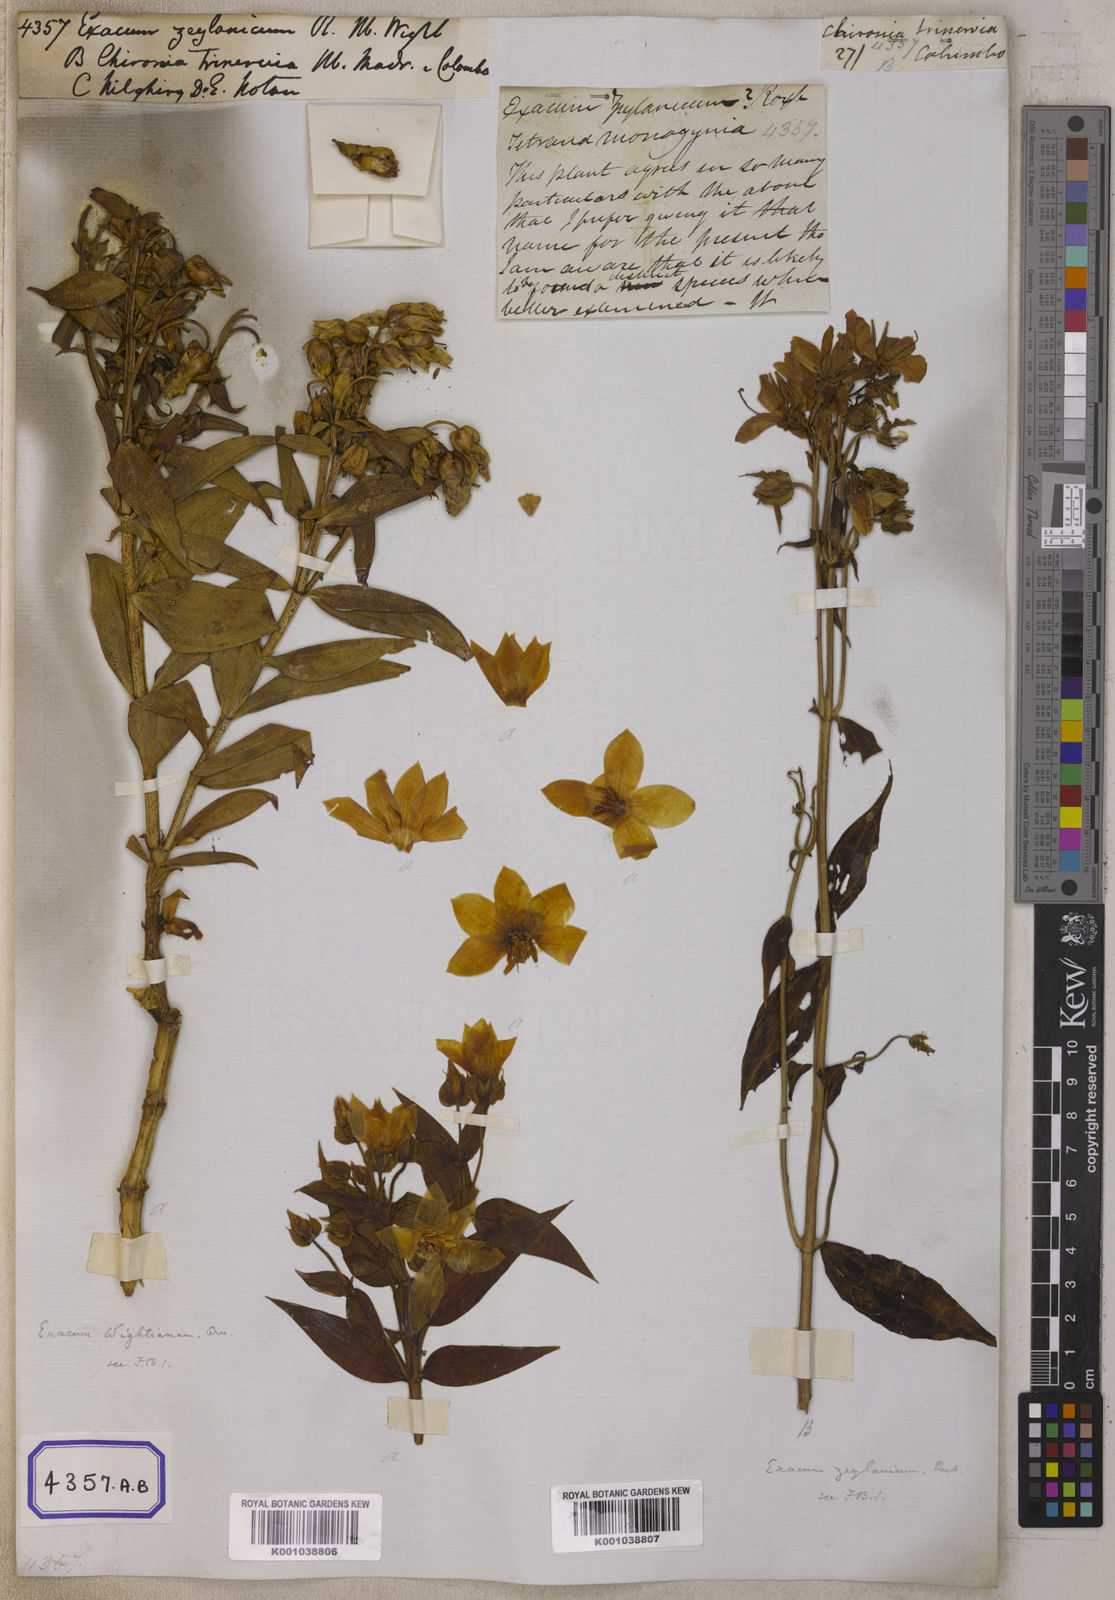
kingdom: Plantae
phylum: Tracheophyta
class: Magnoliopsida
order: Gentianales
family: Gentianaceae
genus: Exacum
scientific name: Exacum
